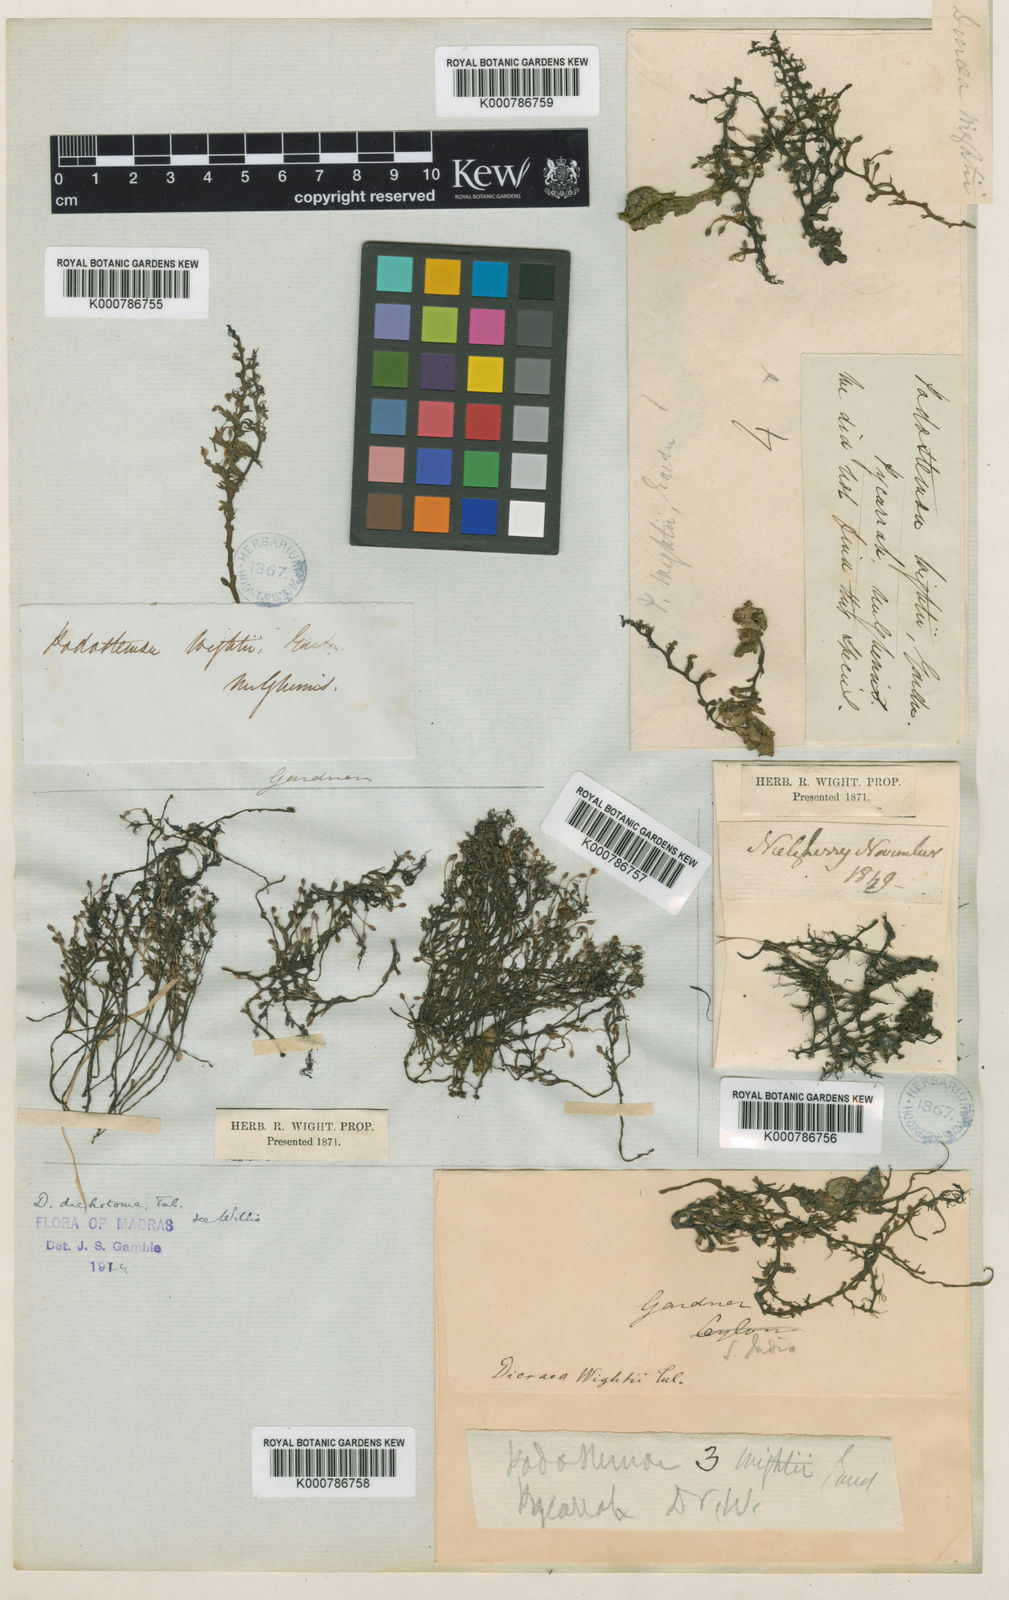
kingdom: Plantae
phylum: Tracheophyta
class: Magnoliopsida
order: Malpighiales
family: Podostemaceae
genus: Polypleurum
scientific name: Polypleurum dichotomum
